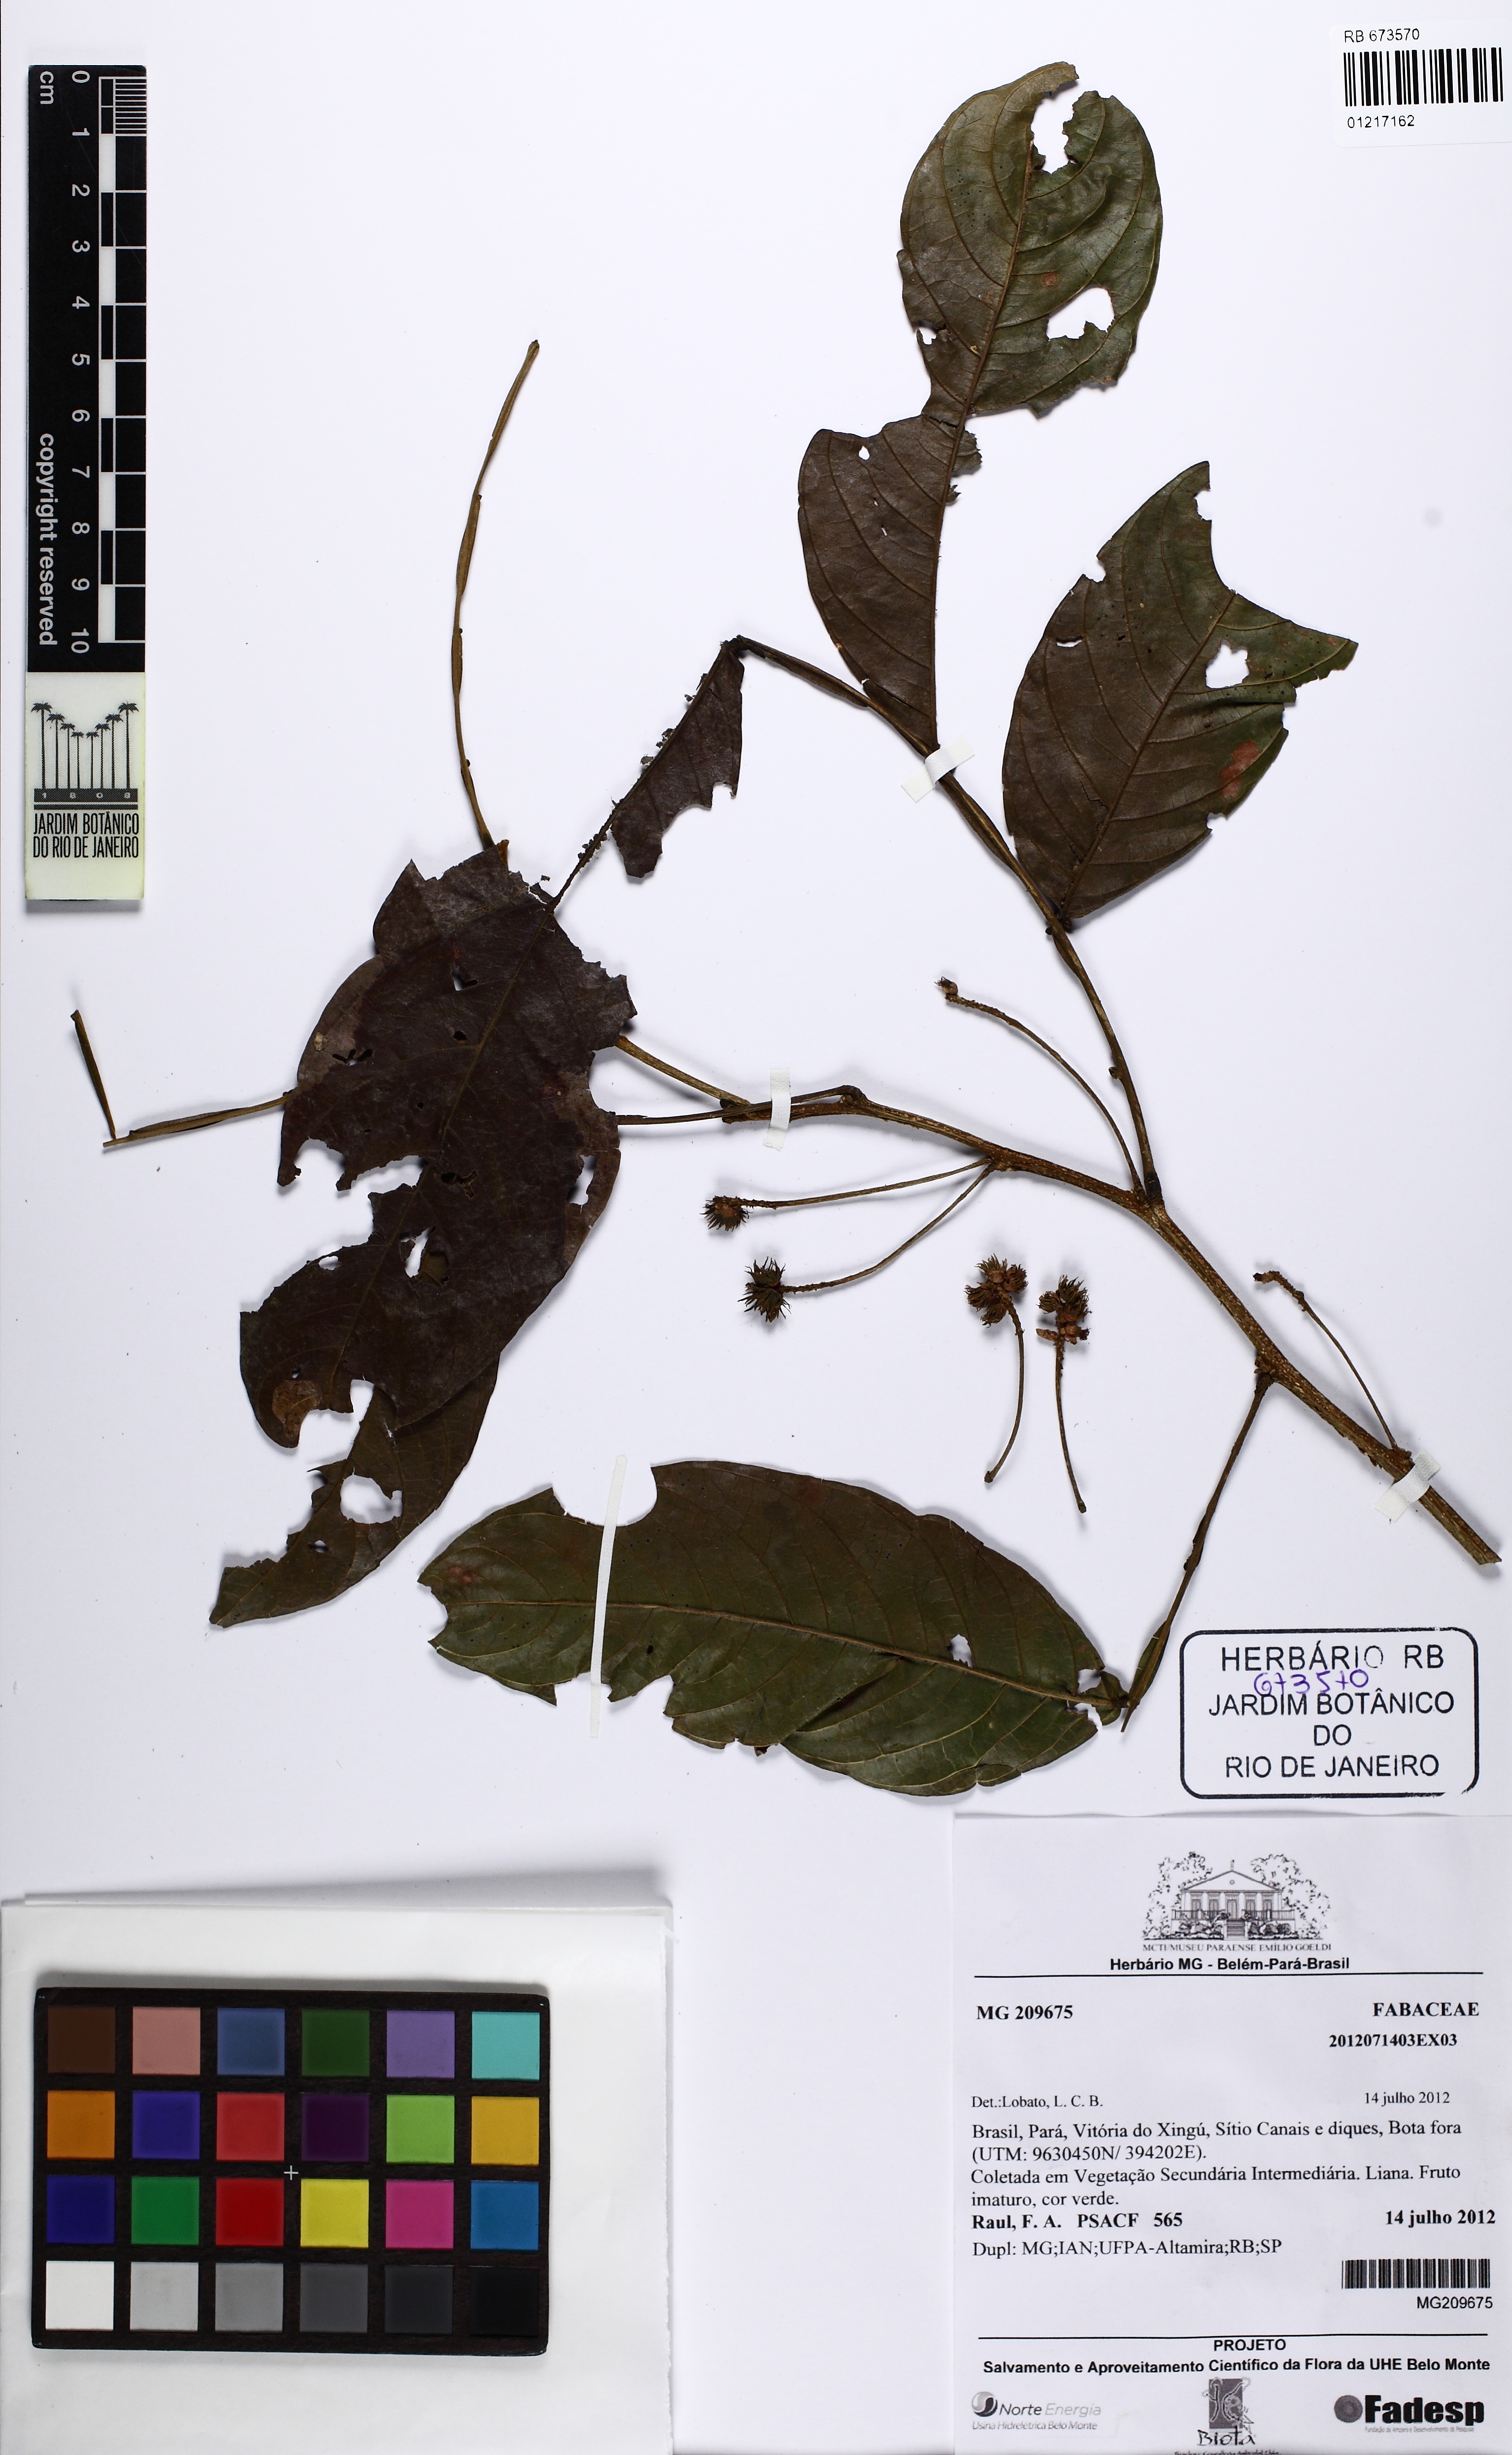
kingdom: Plantae
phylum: Tracheophyta
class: Magnoliopsida
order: Fabales
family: Fabaceae
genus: Inga
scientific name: Inga
